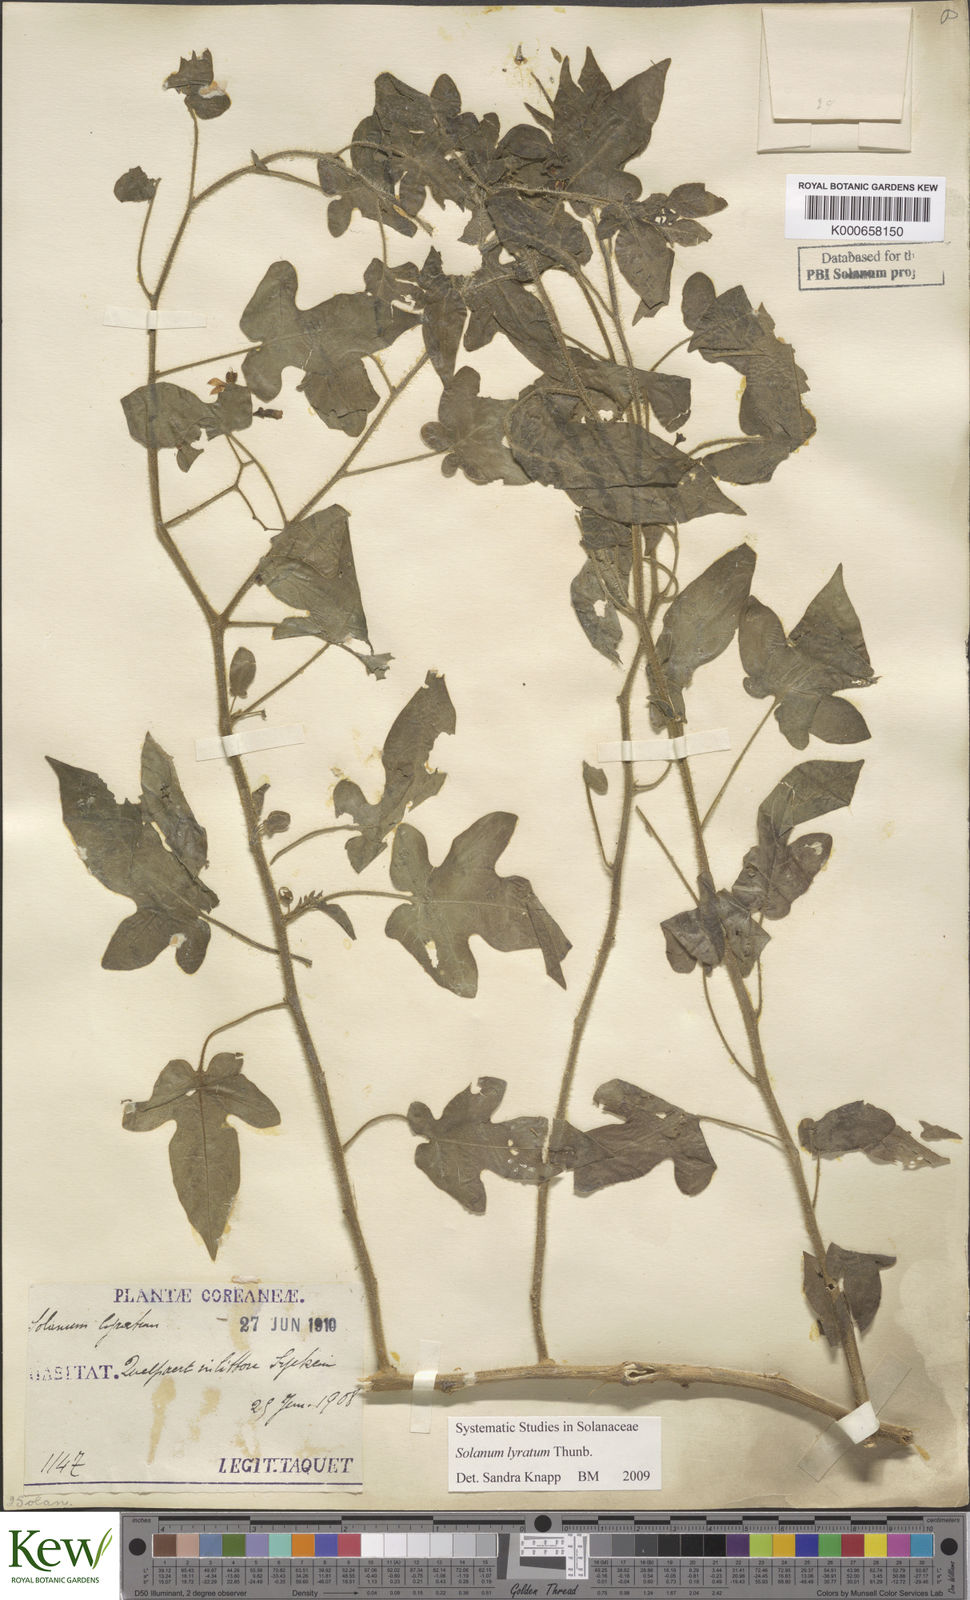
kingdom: Plantae
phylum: Tracheophyta
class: Magnoliopsida
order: Solanales
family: Solanaceae
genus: Solanum
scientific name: Solanum lyratum
